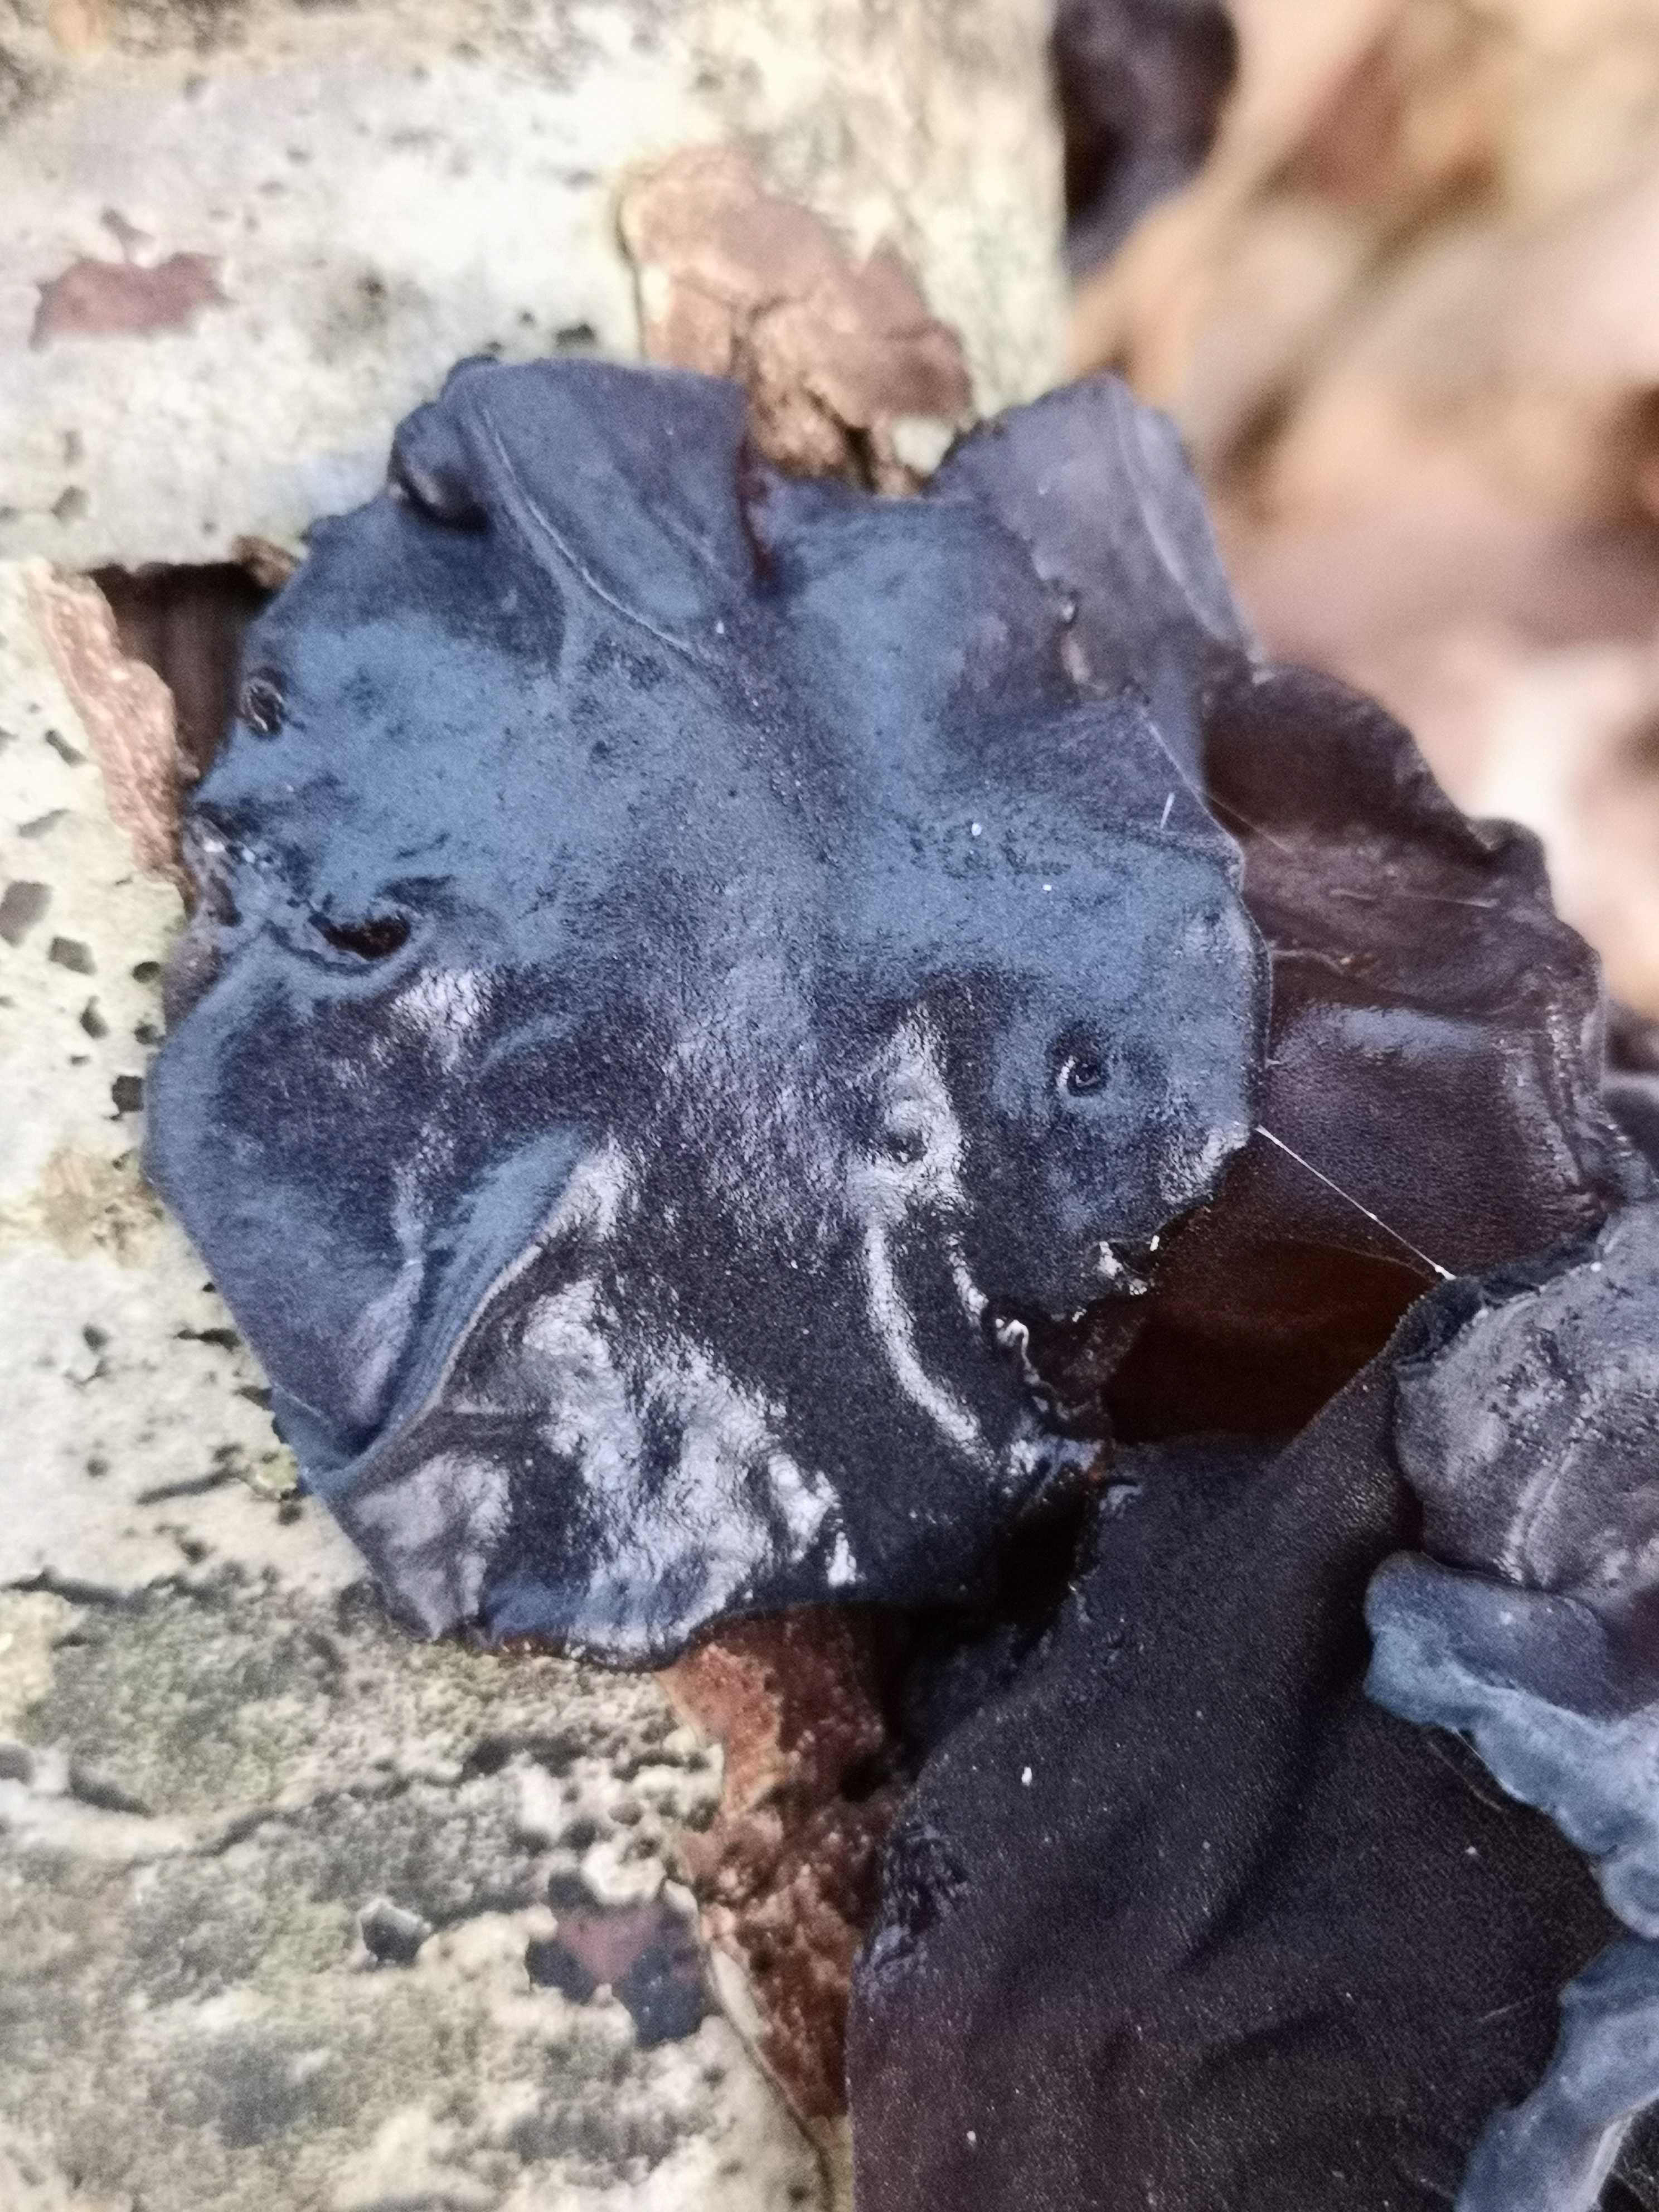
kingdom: Fungi
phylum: Basidiomycota
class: Agaricomycetes
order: Auriculariales
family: Auriculariaceae
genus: Exidia
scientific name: Exidia glandulosa
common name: ege-bævretop
